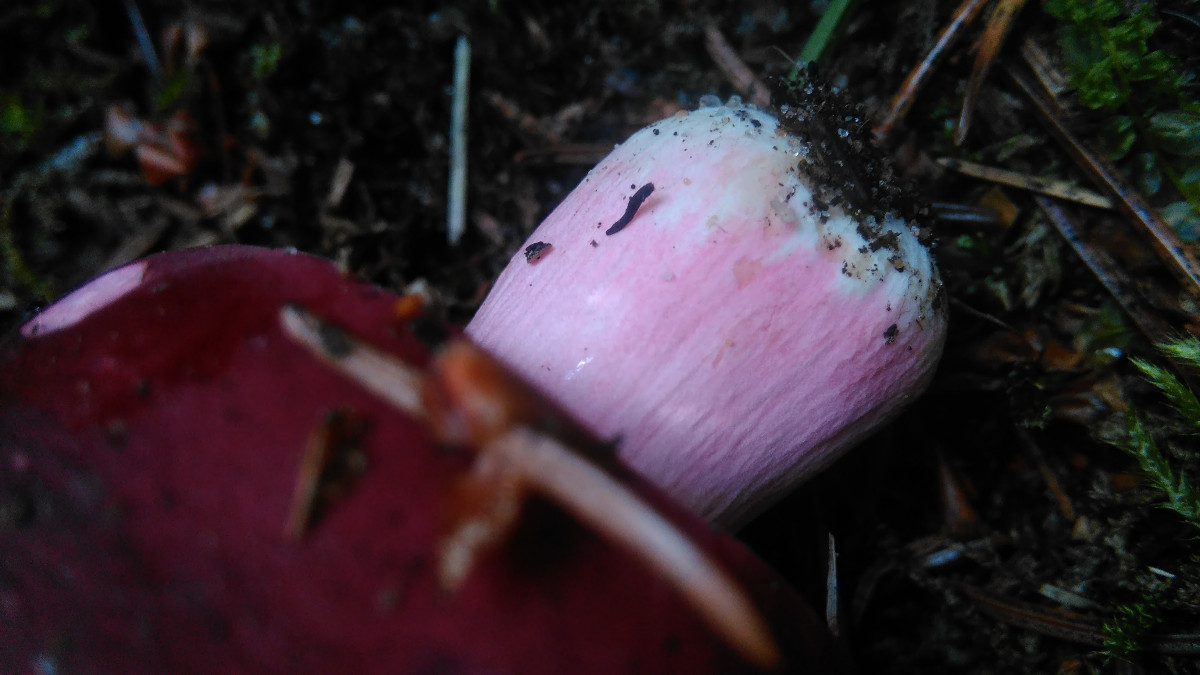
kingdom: Fungi
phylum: Basidiomycota
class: Agaricomycetes
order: Russulales
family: Russulaceae
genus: Russula
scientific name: Russula xerampelina
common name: hummer-skørhat
